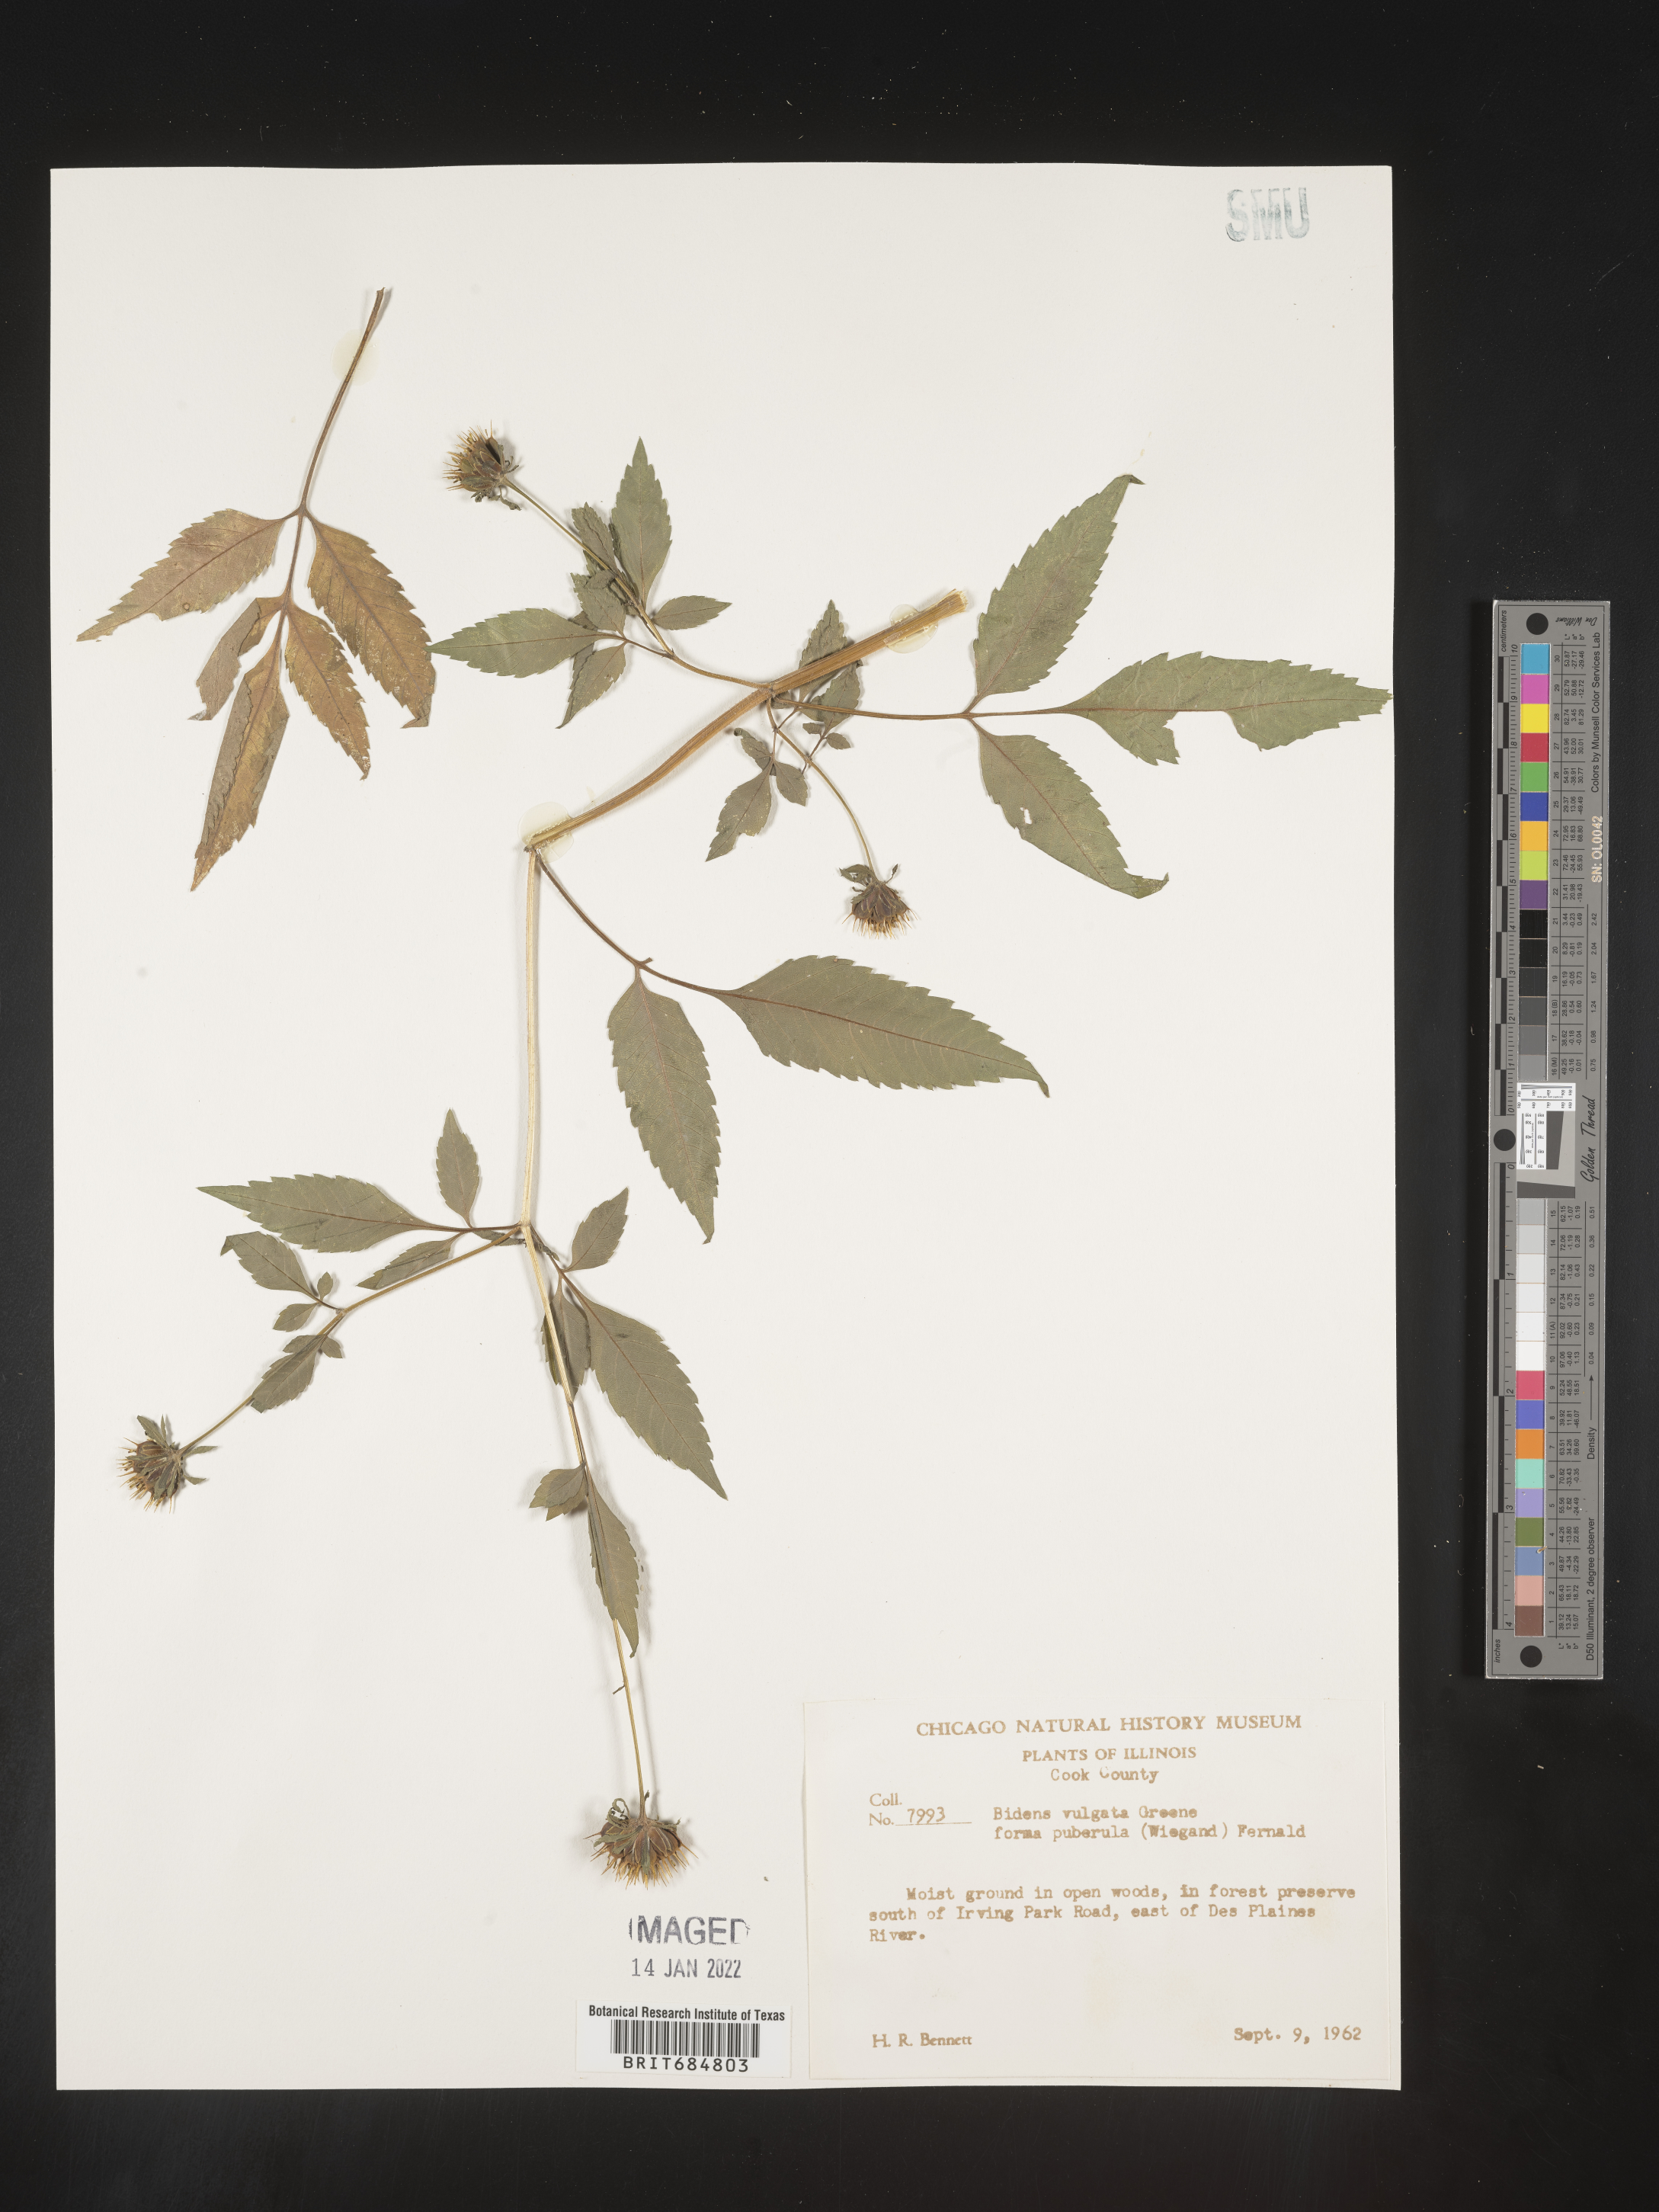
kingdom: Plantae
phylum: Tracheophyta
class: Magnoliopsida
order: Asterales
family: Asteraceae
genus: Bidens
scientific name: Bidens vulgata
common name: Tall beggarticks
